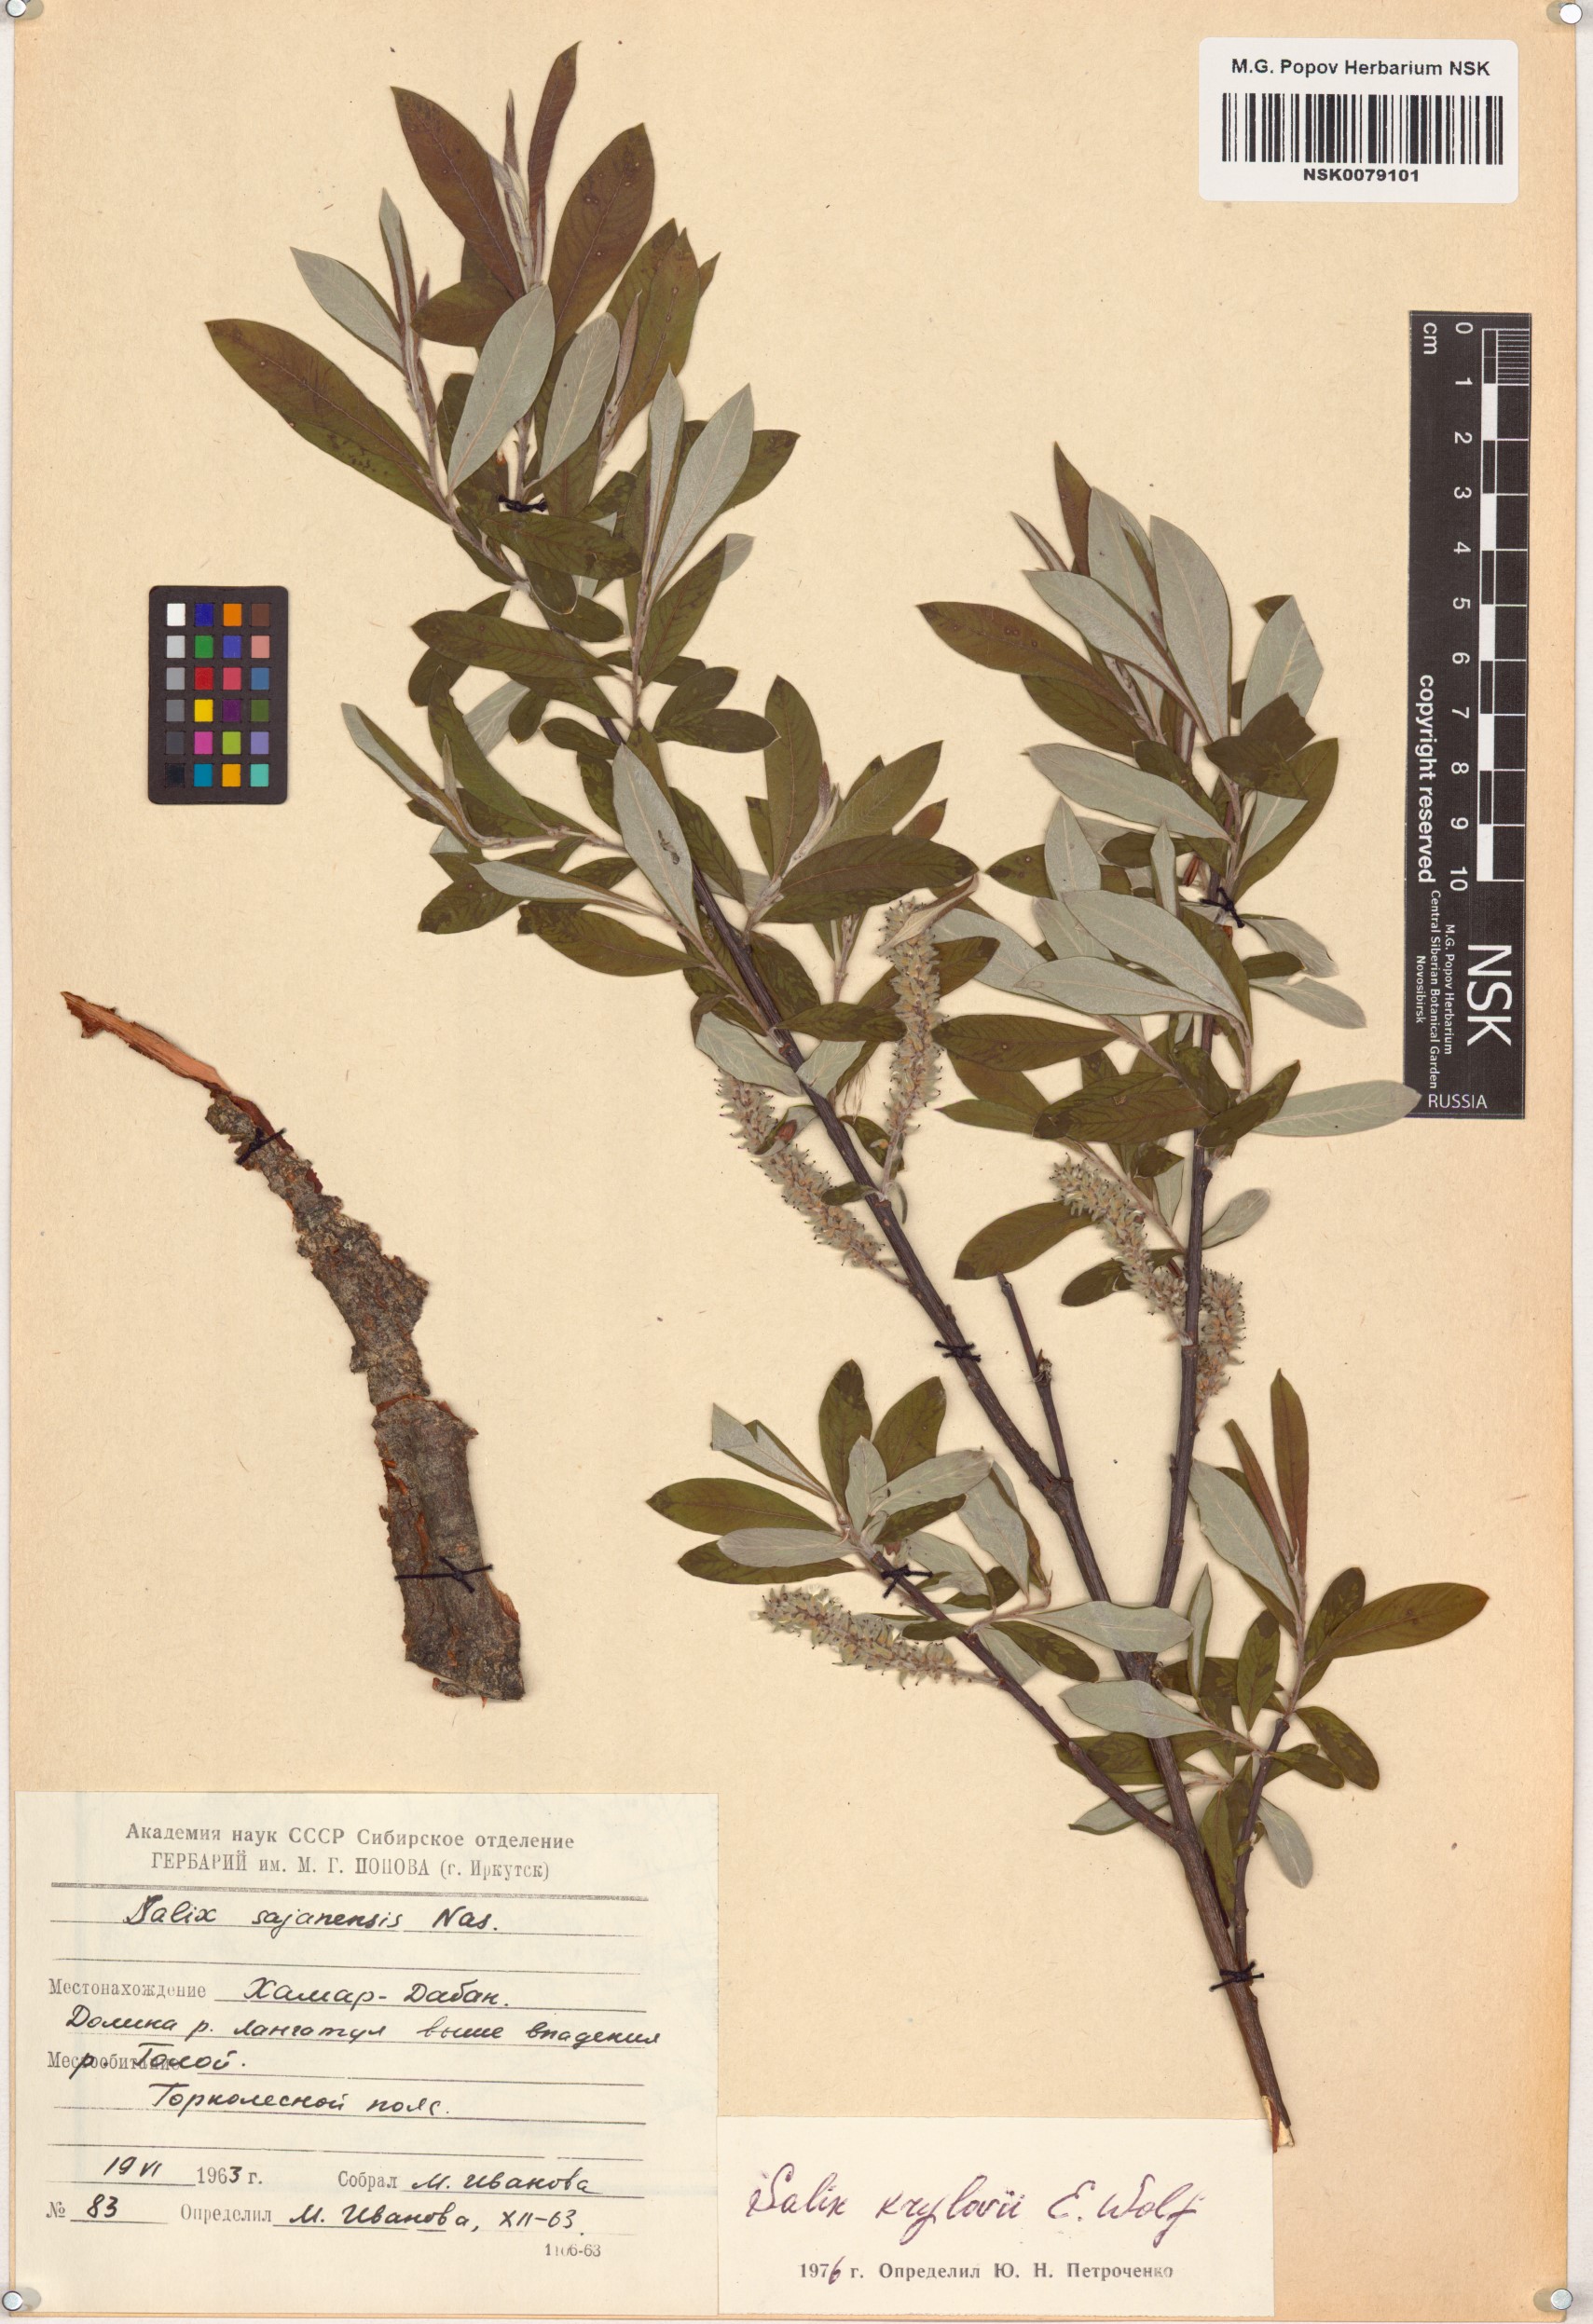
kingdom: Plantae
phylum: Tracheophyta
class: Magnoliopsida
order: Malpighiales
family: Salicaceae
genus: Salix
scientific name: Salix krylovii
